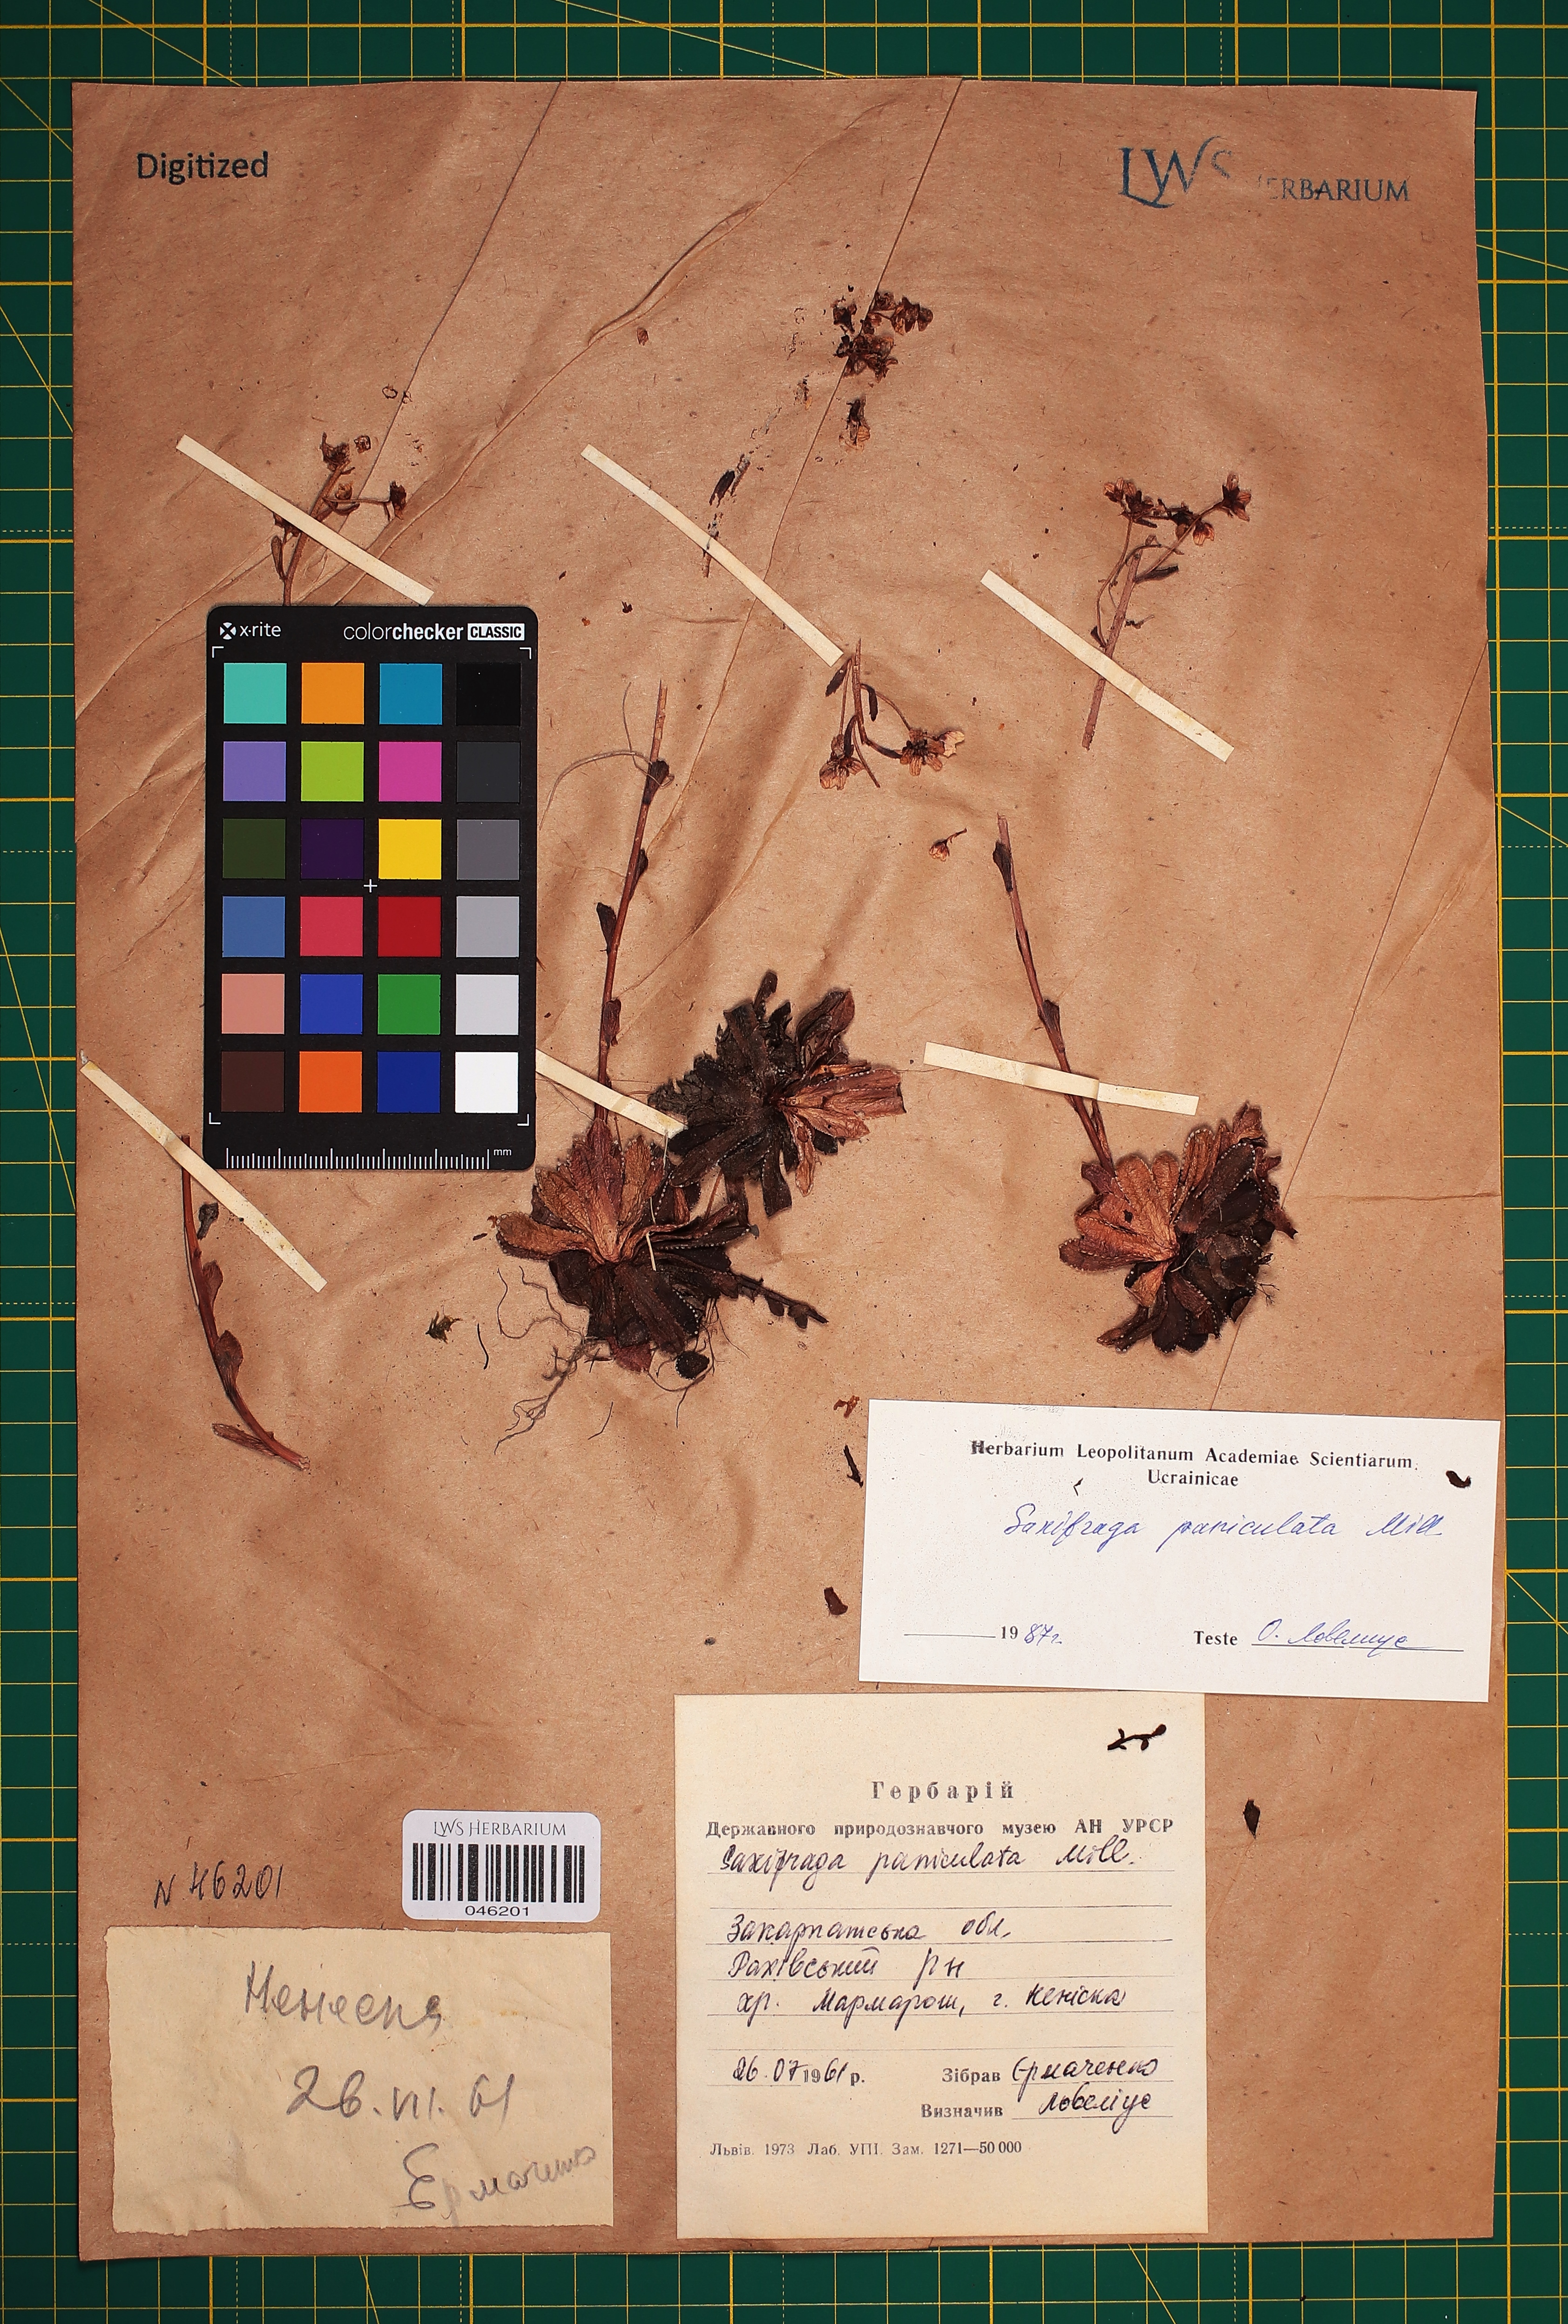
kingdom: Plantae
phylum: Tracheophyta
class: Magnoliopsida
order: Saxifragales
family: Saxifragaceae
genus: Saxifraga
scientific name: Saxifraga paniculata
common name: Livelong saxifrage
